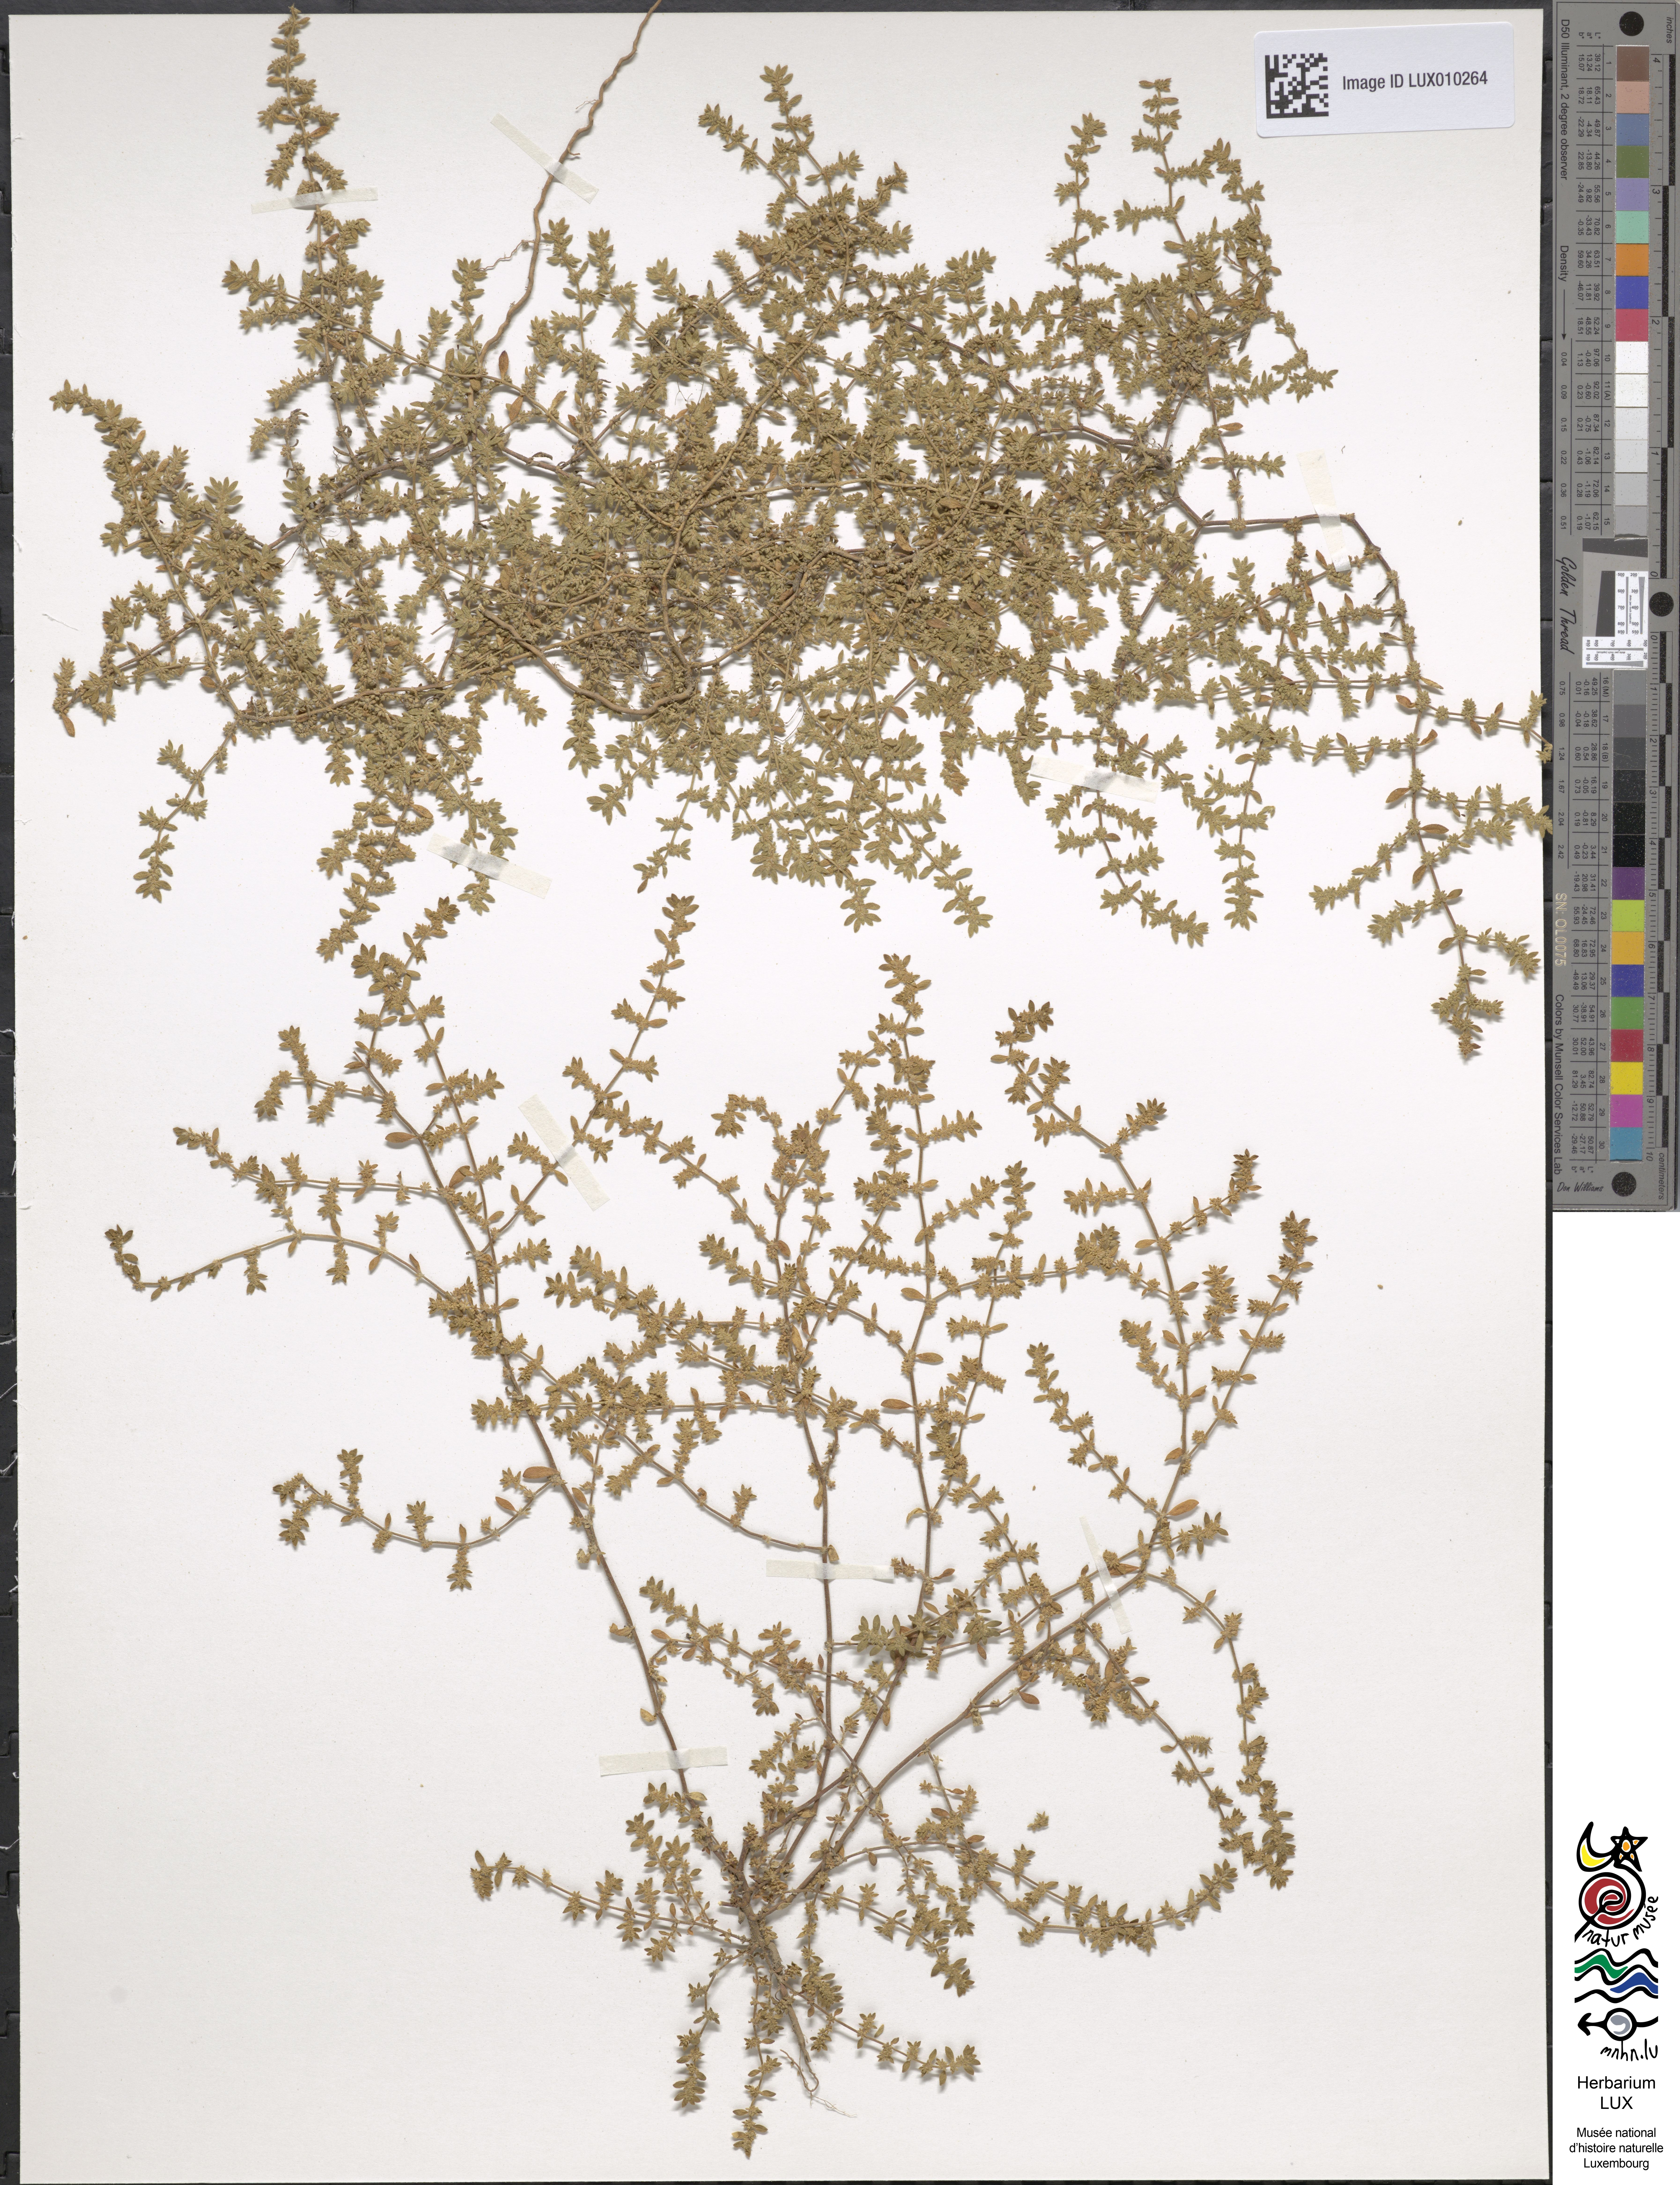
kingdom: Plantae
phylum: Tracheophyta
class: Magnoliopsida
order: Caryophyllales
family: Caryophyllaceae
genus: Herniaria
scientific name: Herniaria hirsuta
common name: Hairy rupturewort
